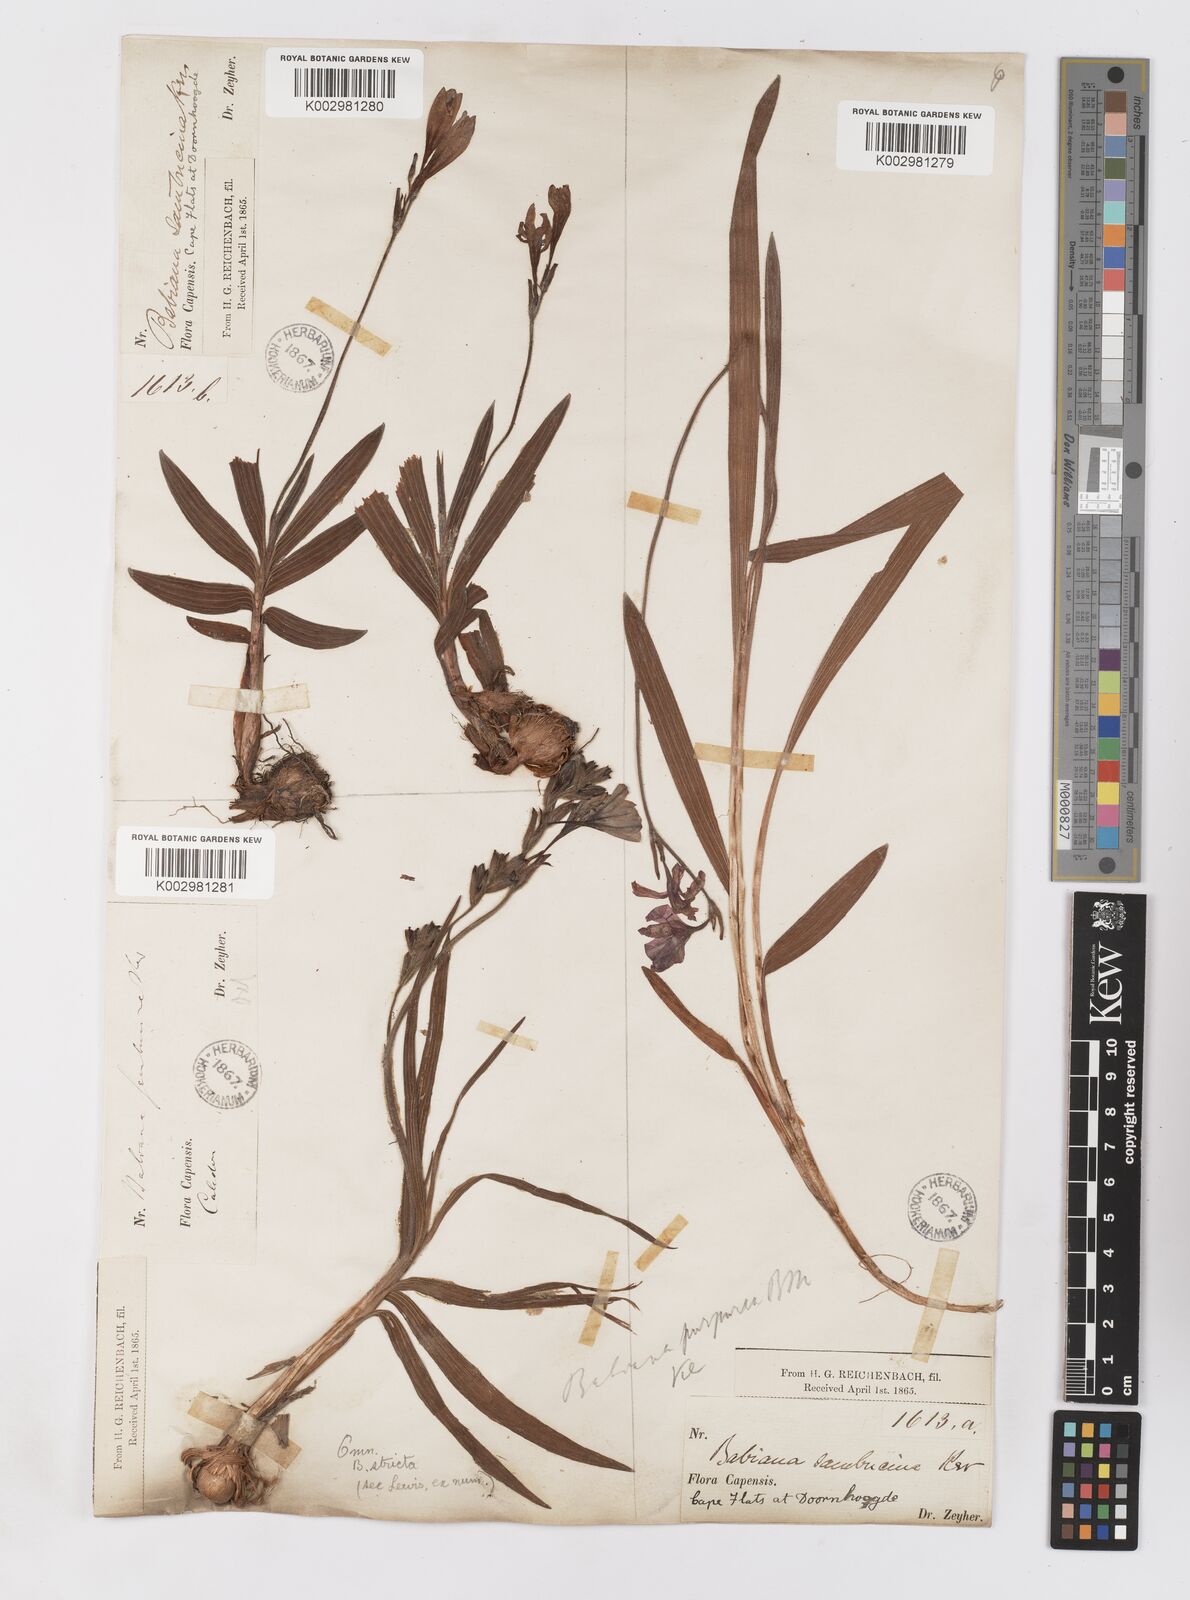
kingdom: Plantae
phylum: Tracheophyta
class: Liliopsida
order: Asparagales
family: Iridaceae
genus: Babiana
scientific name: Babiana regia
